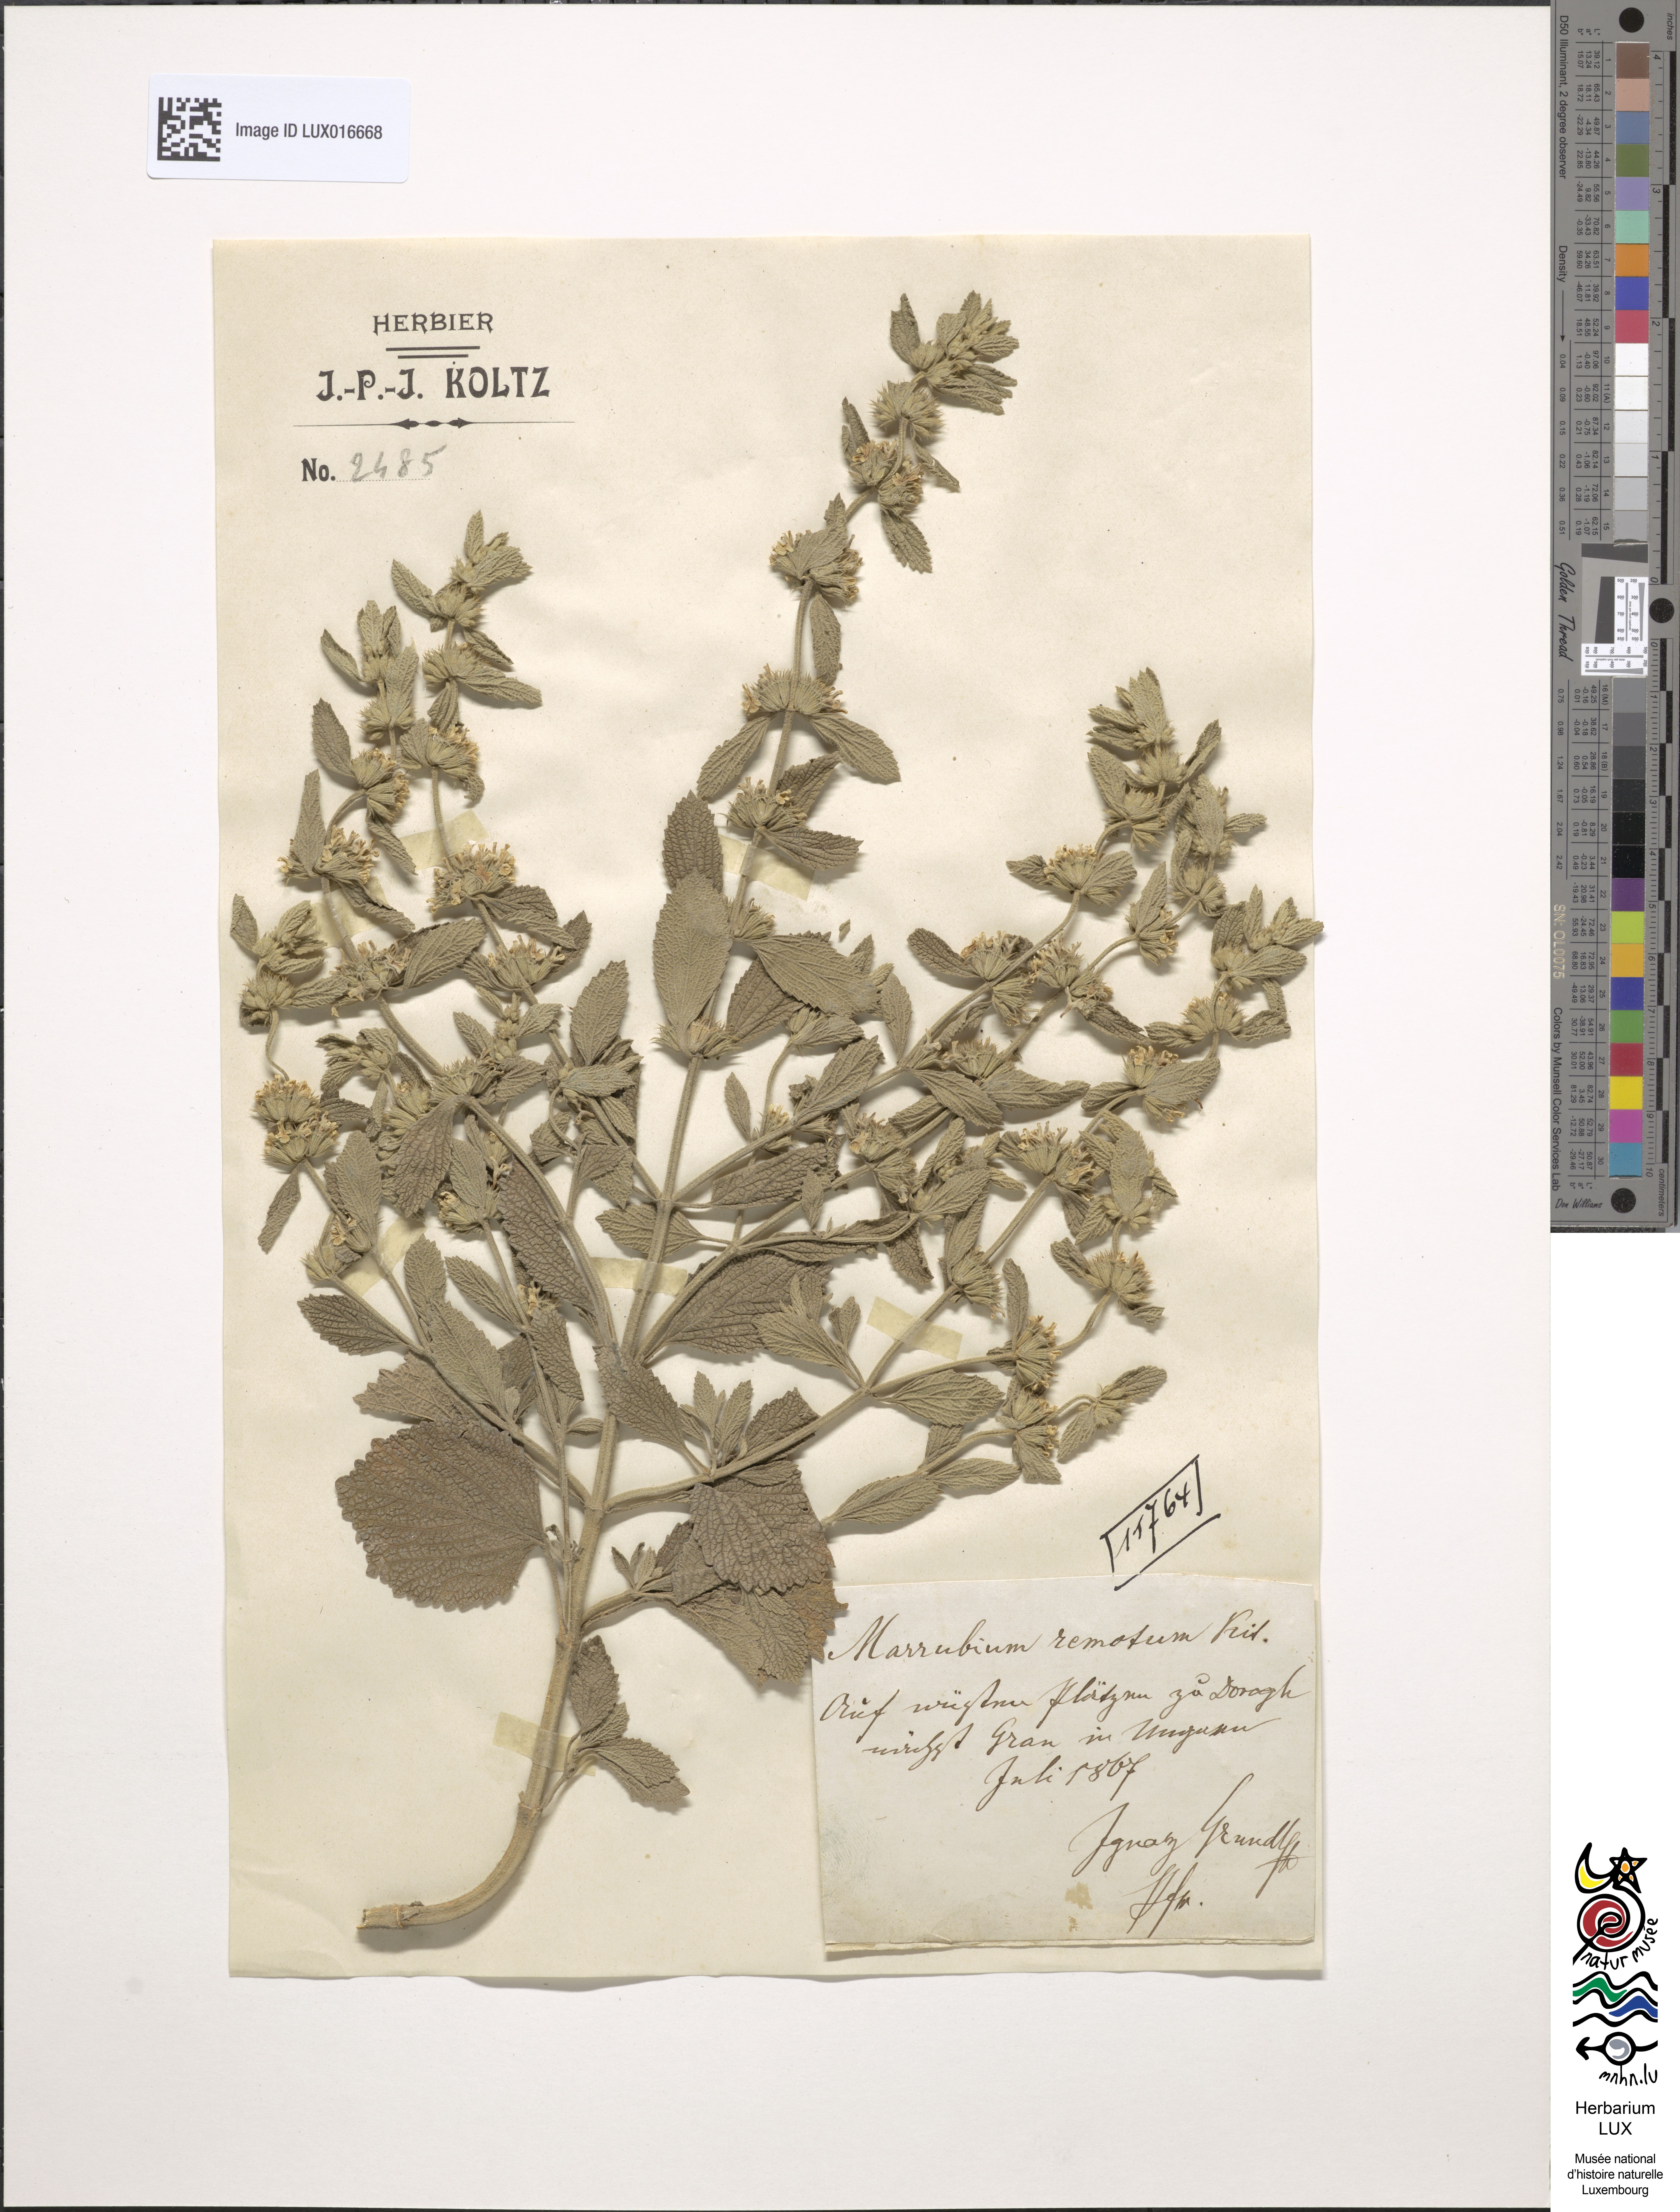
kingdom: Plantae
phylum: Tracheophyta
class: Magnoliopsida
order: Lamiales
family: Lamiaceae
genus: Marrubium
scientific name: Marrubium paniculatum
